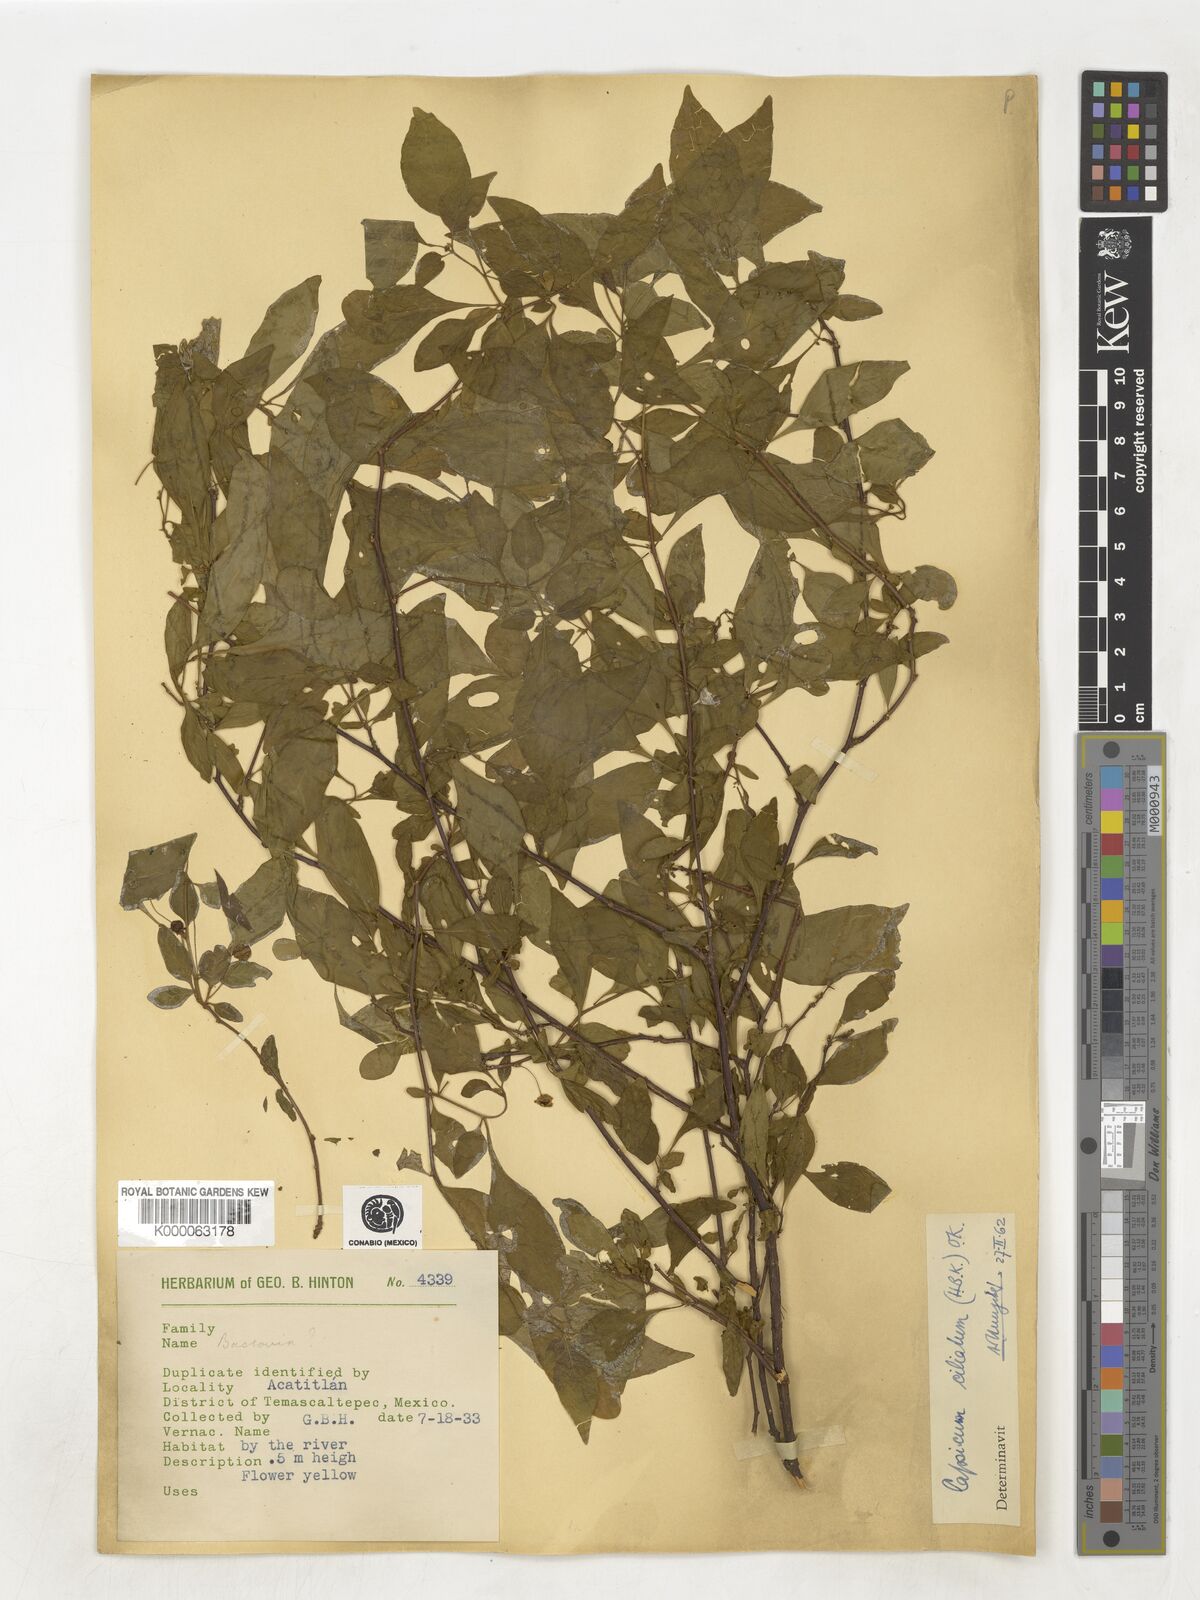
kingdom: Plantae
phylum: Tracheophyta
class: Magnoliopsida
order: Solanales
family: Solanaceae
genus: Capsicum
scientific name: Capsicum rhomboideum
